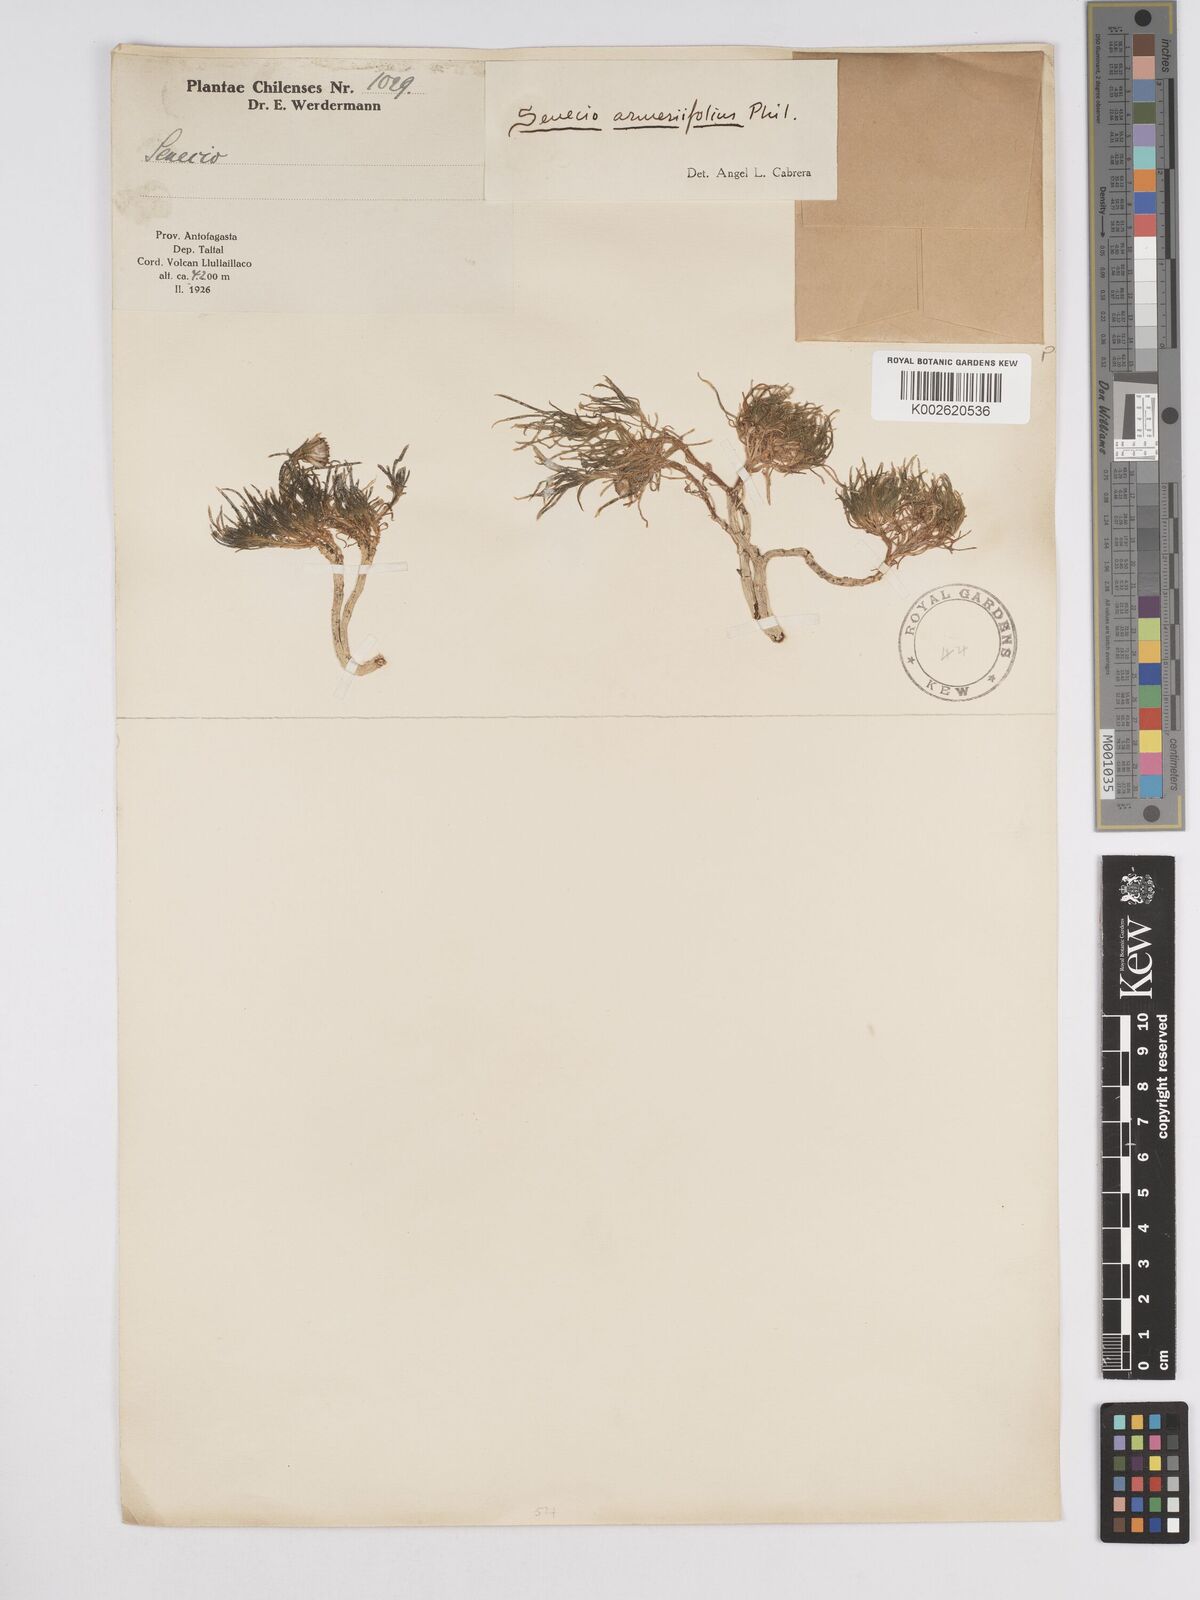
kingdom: Plantae
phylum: Tracheophyta
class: Magnoliopsida
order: Asterales
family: Asteraceae
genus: Senecio
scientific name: Senecio scorzonerifolius
